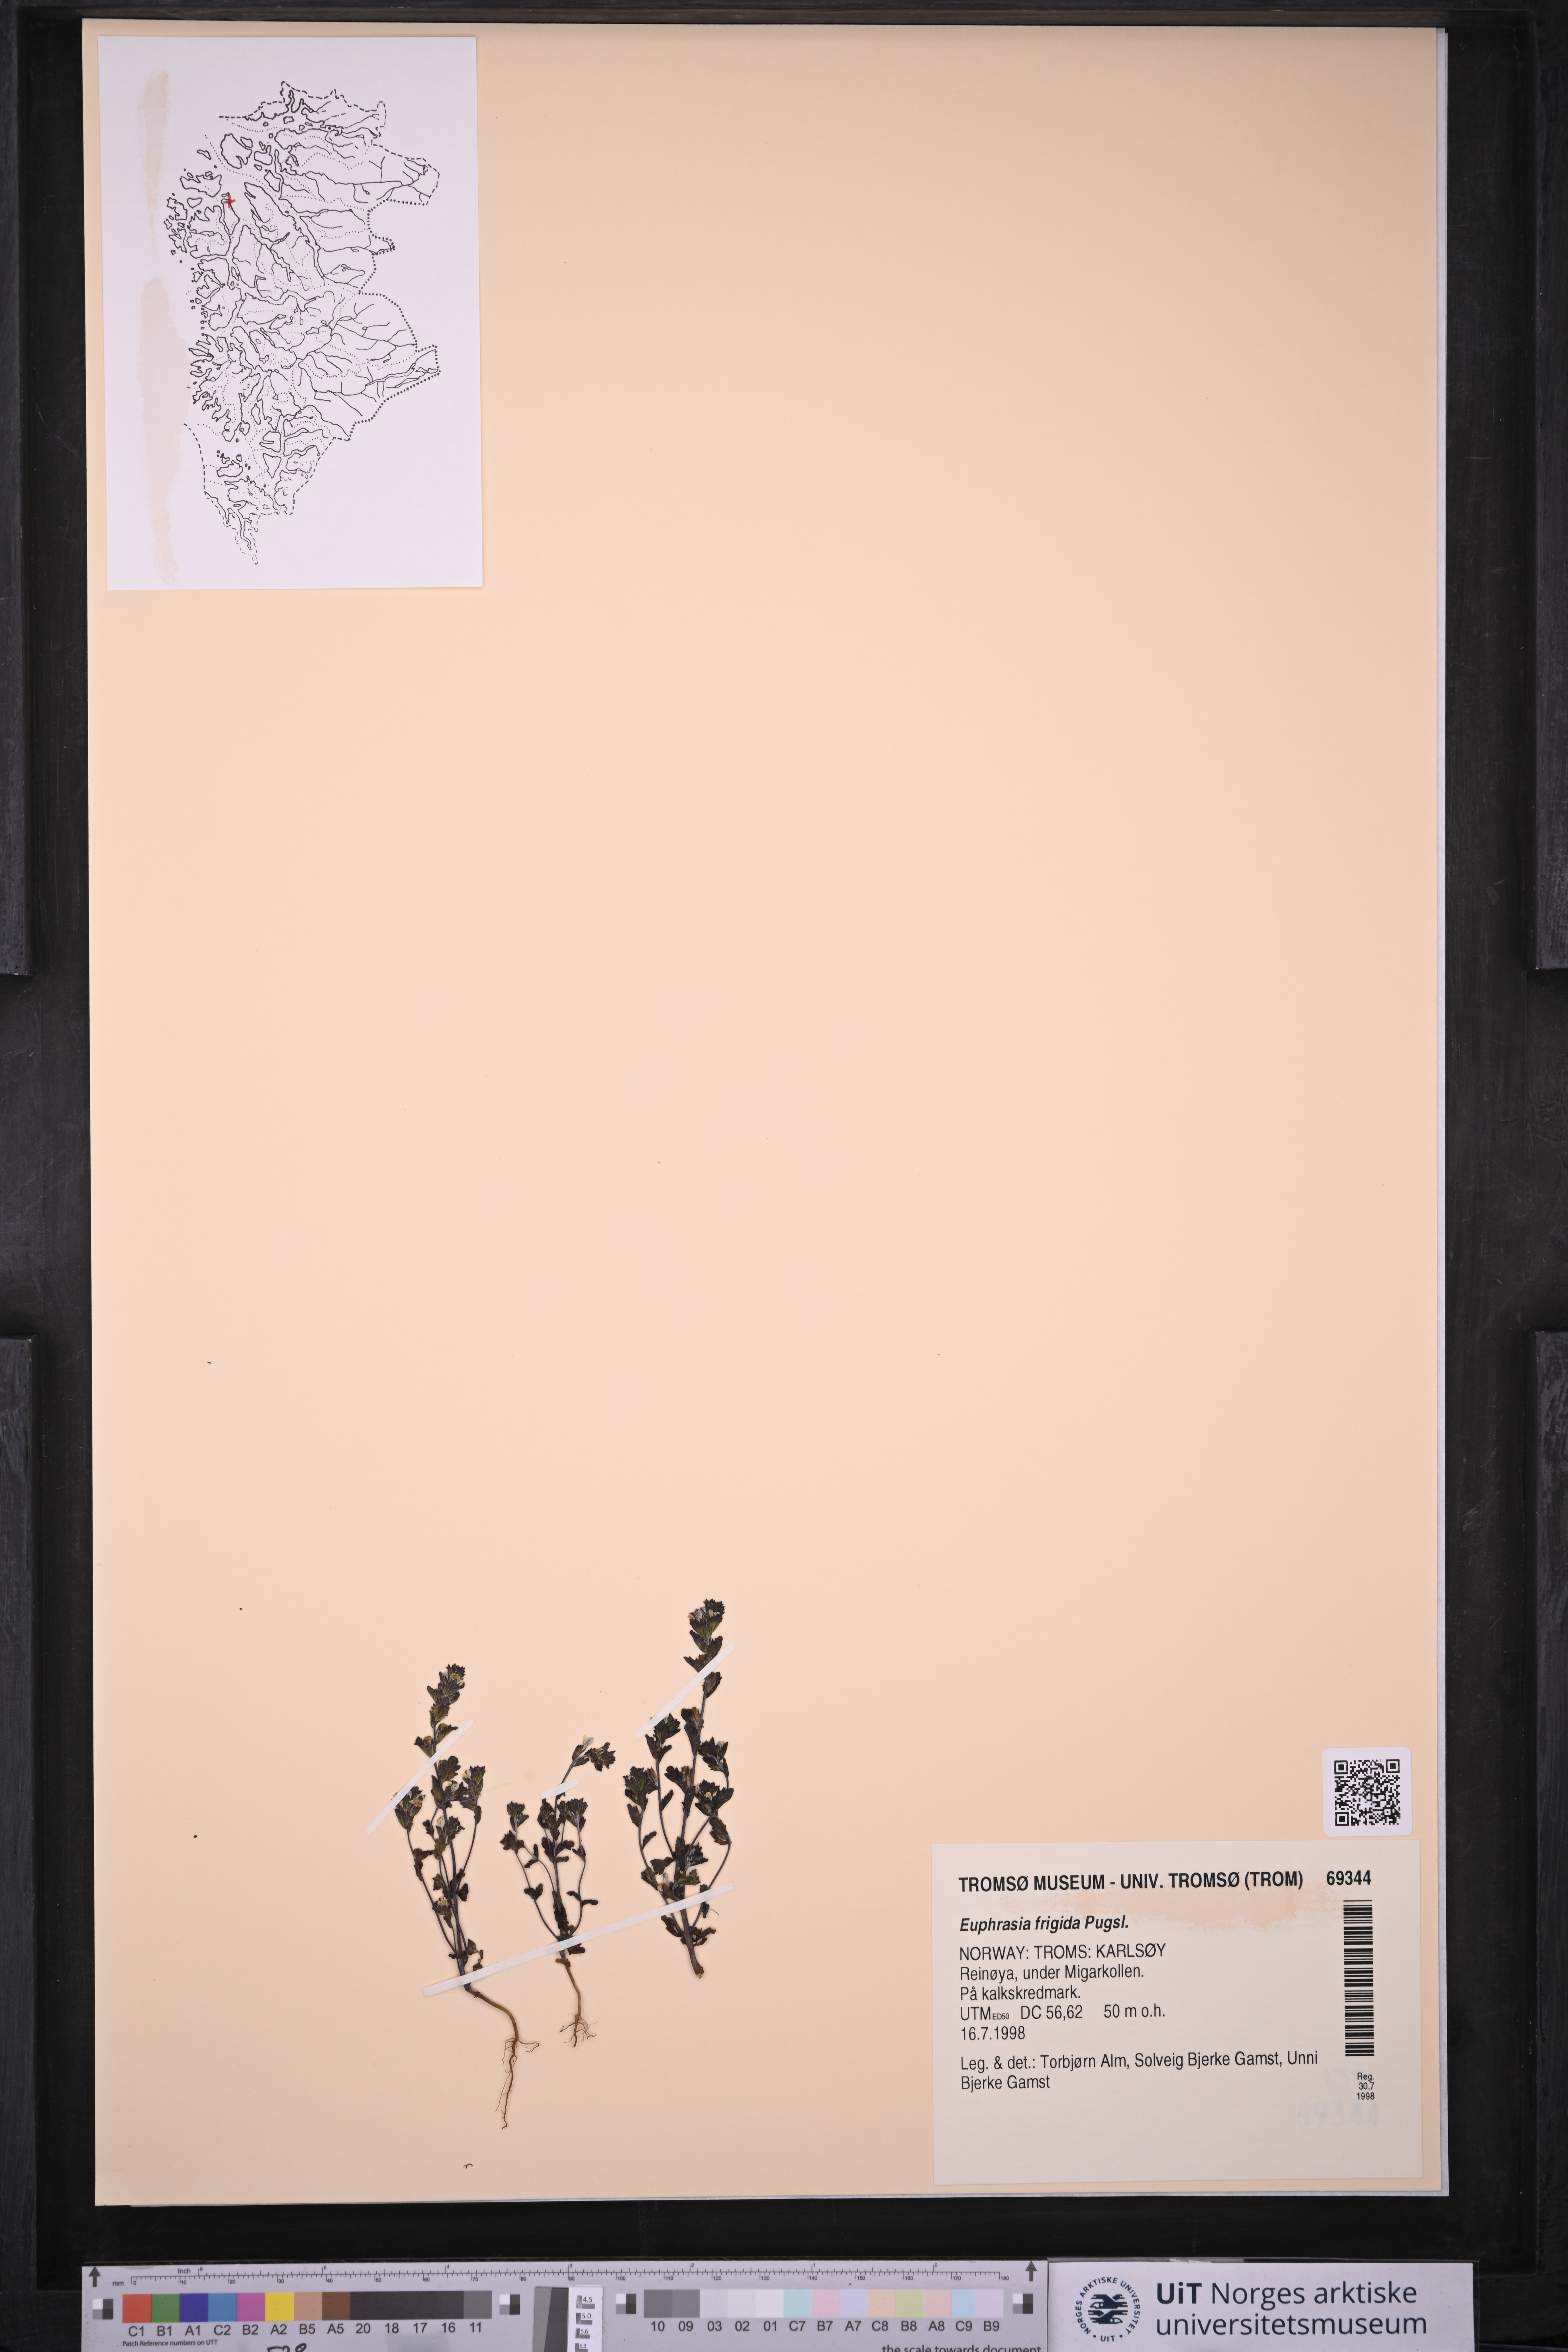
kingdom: Plantae
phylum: Tracheophyta
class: Magnoliopsida
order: Lamiales
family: Orobanchaceae
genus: Euphrasia
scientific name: Euphrasia frigida
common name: An eyebright
